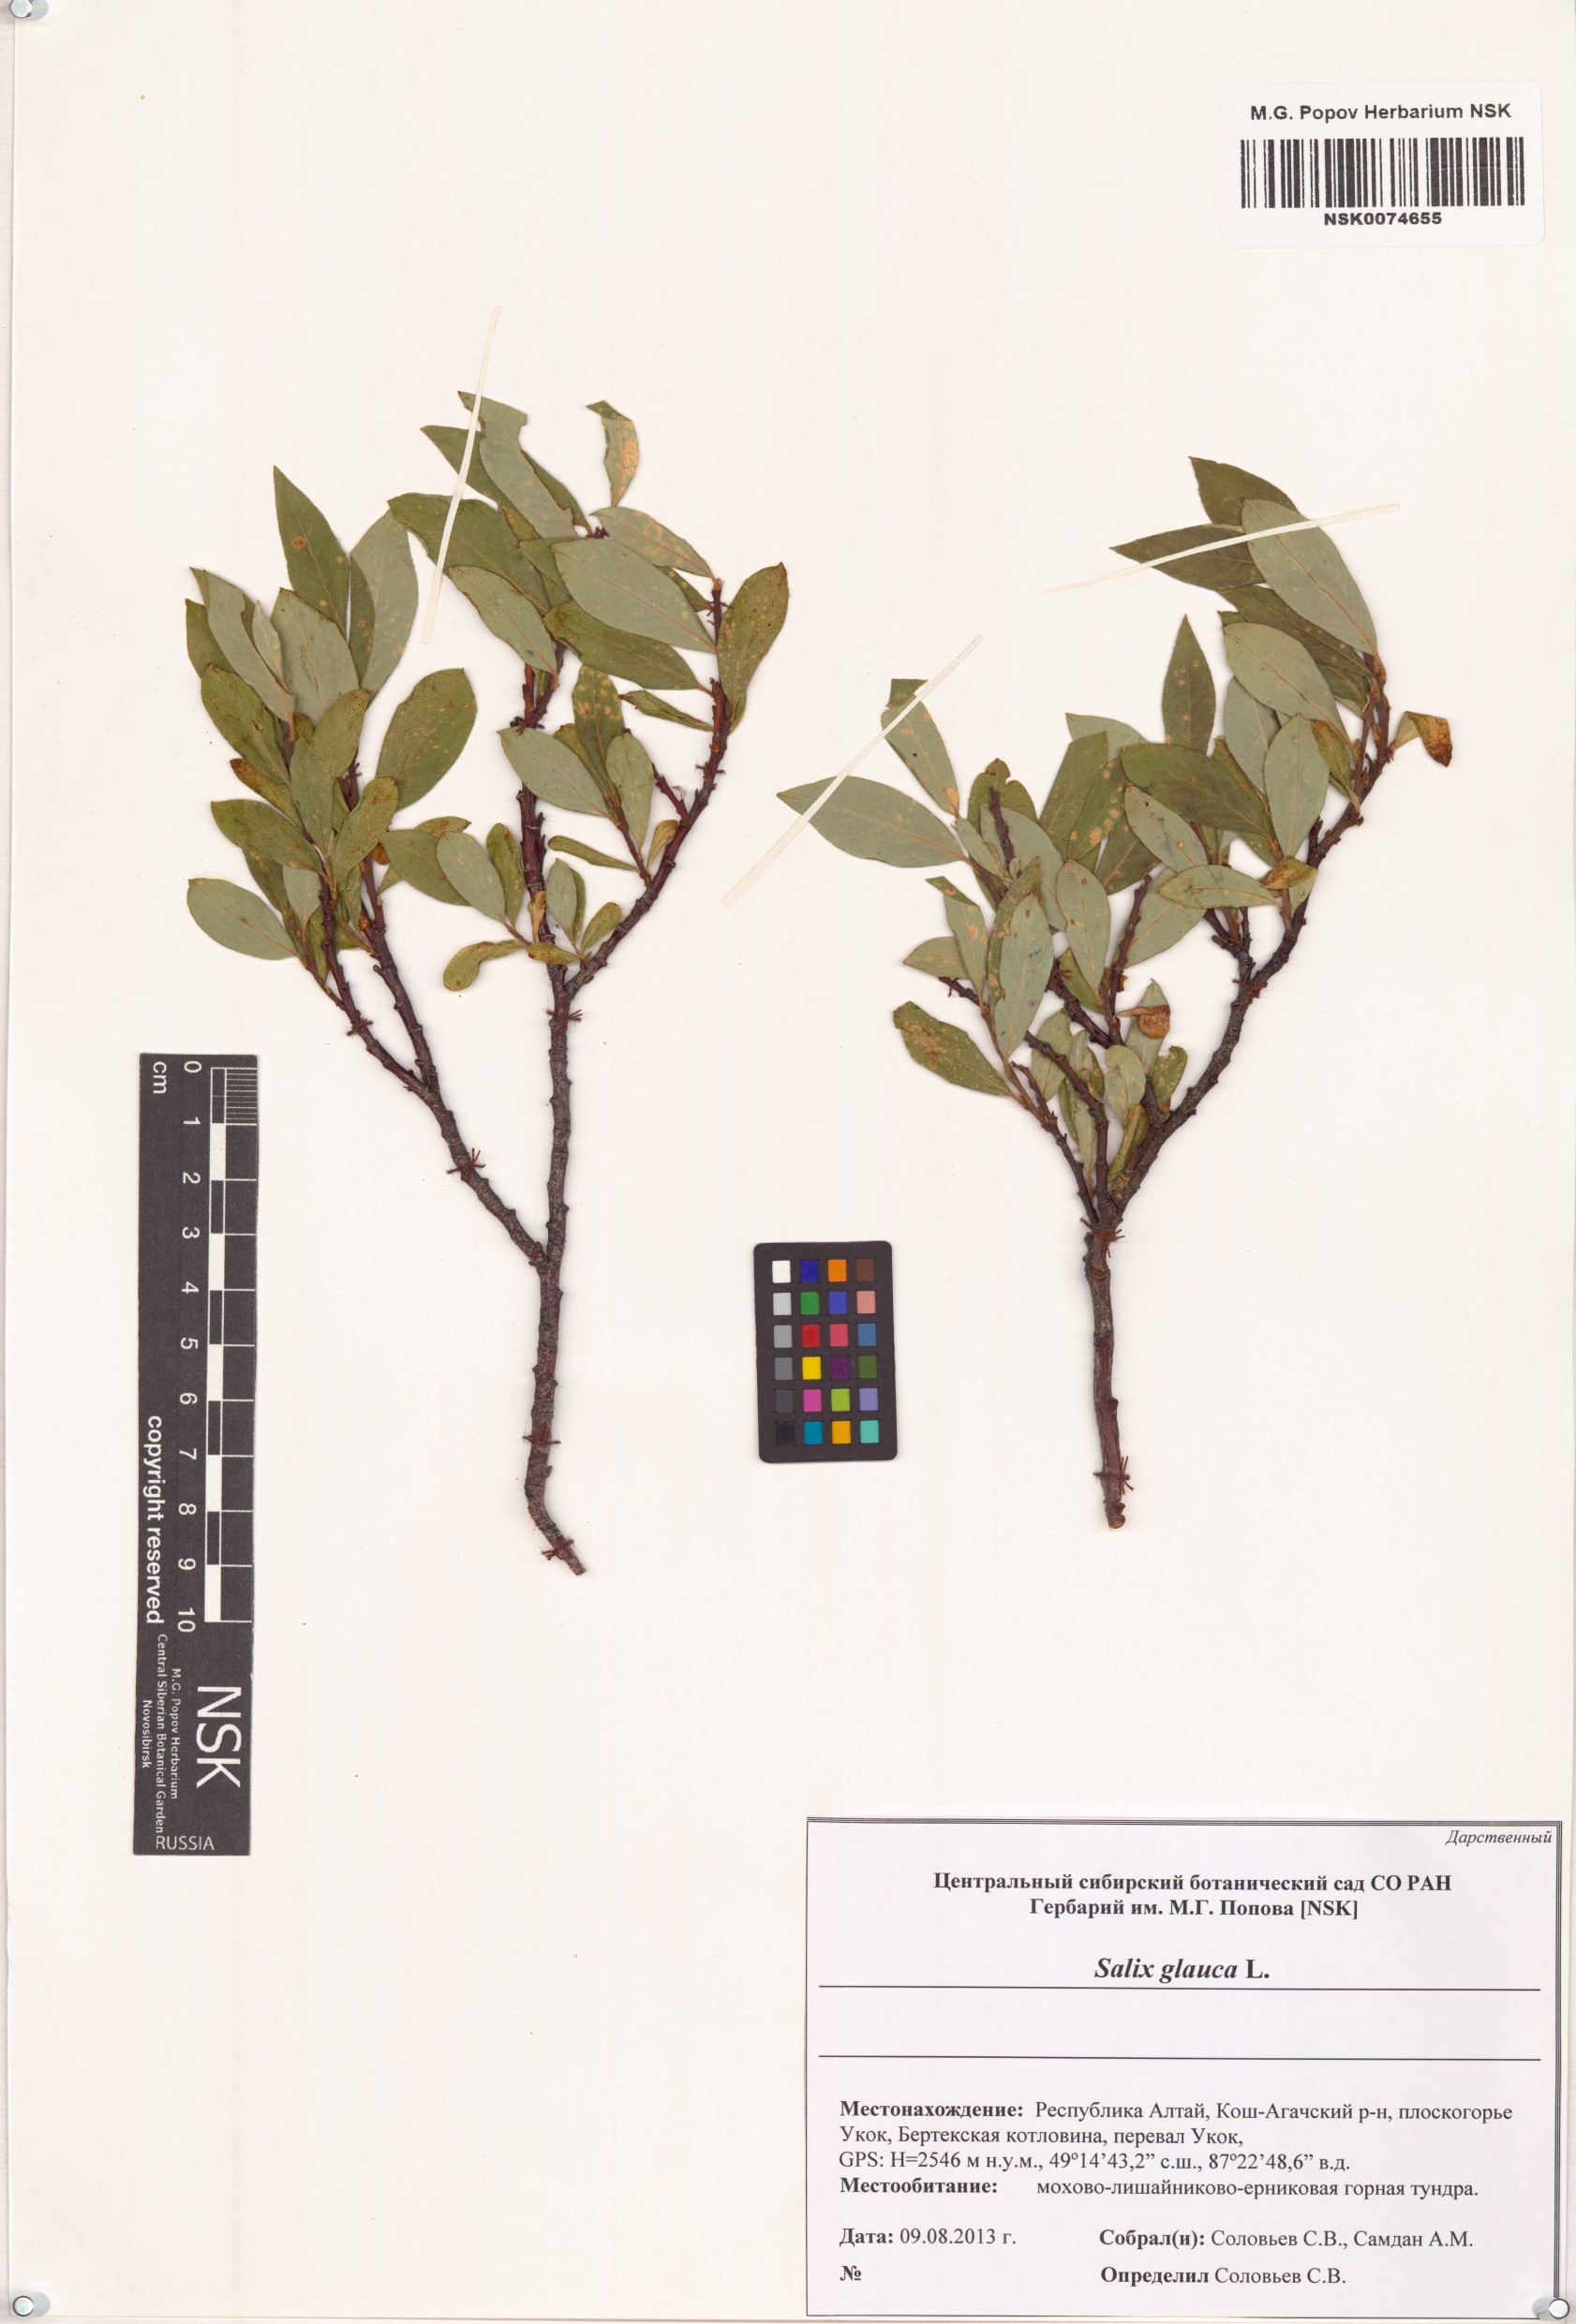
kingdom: Plantae
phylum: Tracheophyta
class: Magnoliopsida
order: Malpighiales
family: Salicaceae
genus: Salix
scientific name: Salix glauca
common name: Glaucous willow
